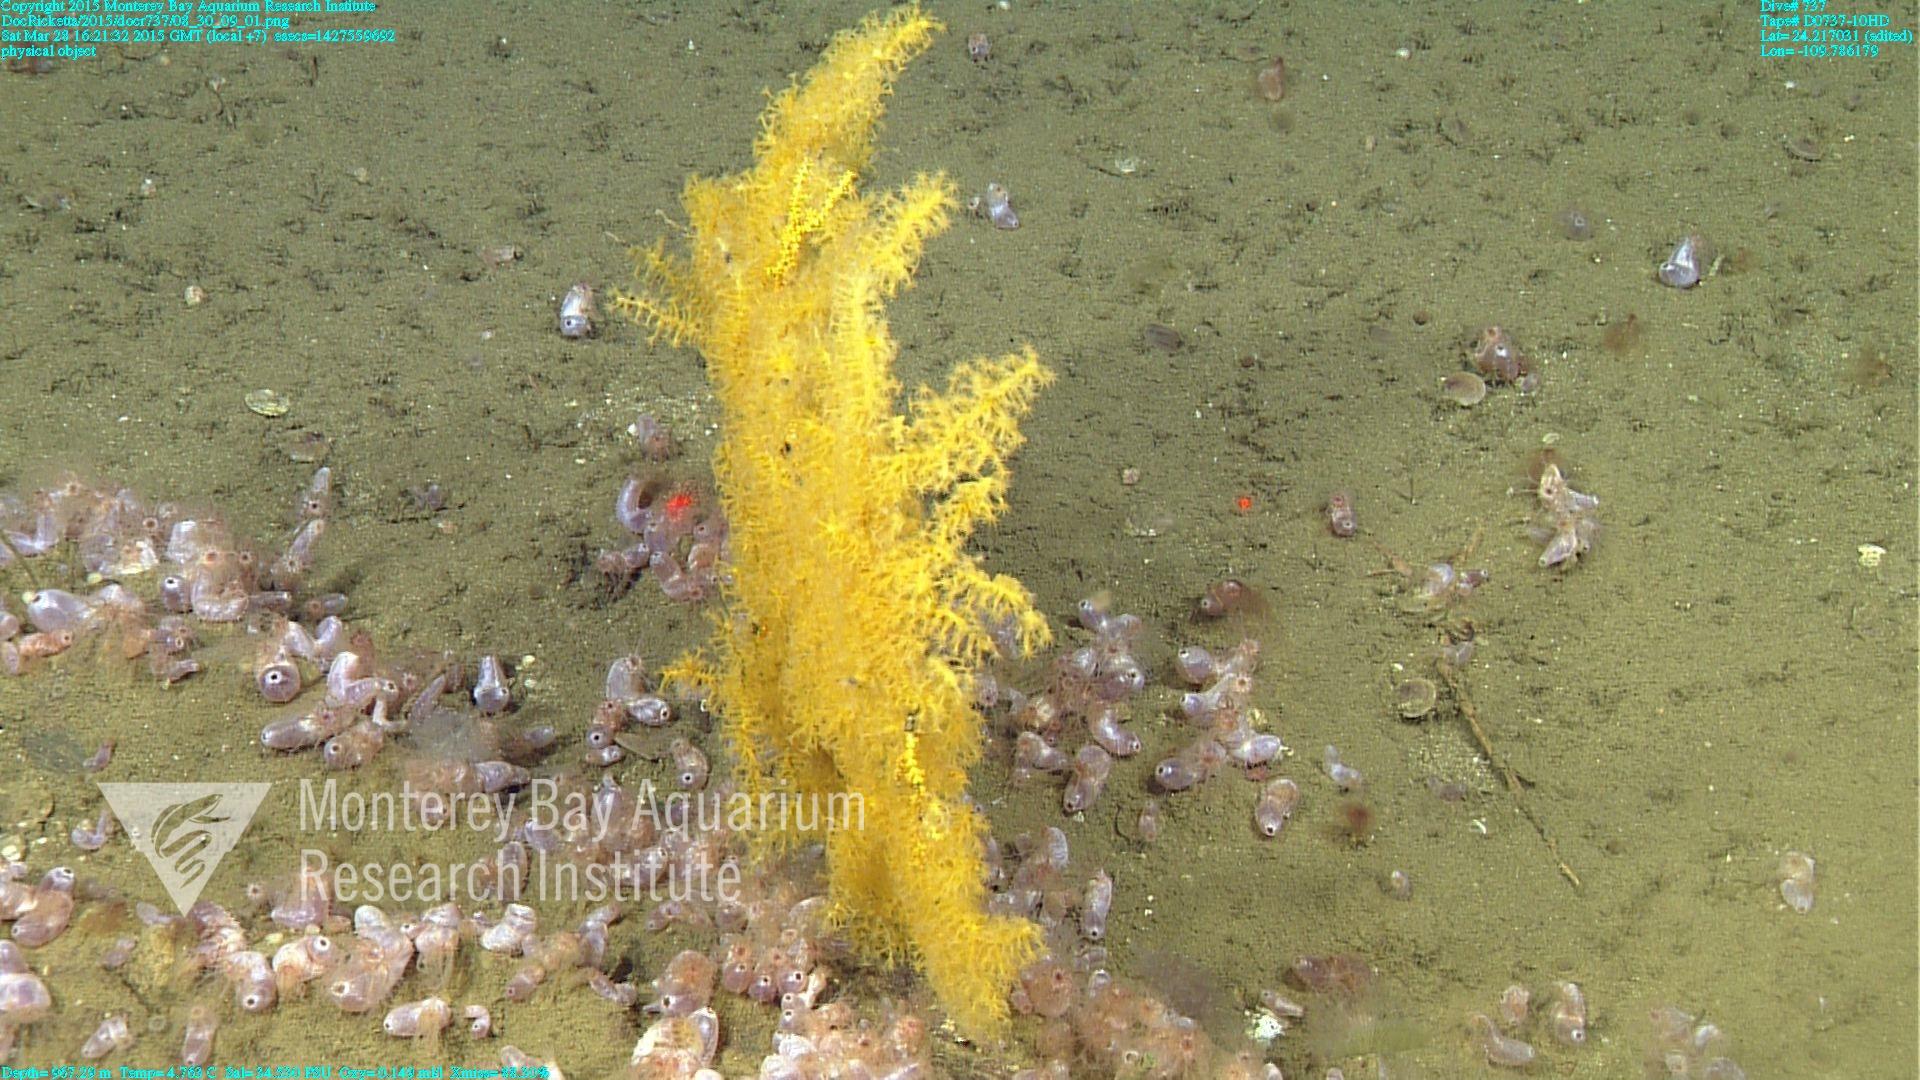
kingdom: Animalia
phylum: Cnidaria
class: Anthozoa
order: Malacalcyonacea
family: Paramuriceidae
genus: Acanthogorgia
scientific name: Acanthogorgia
